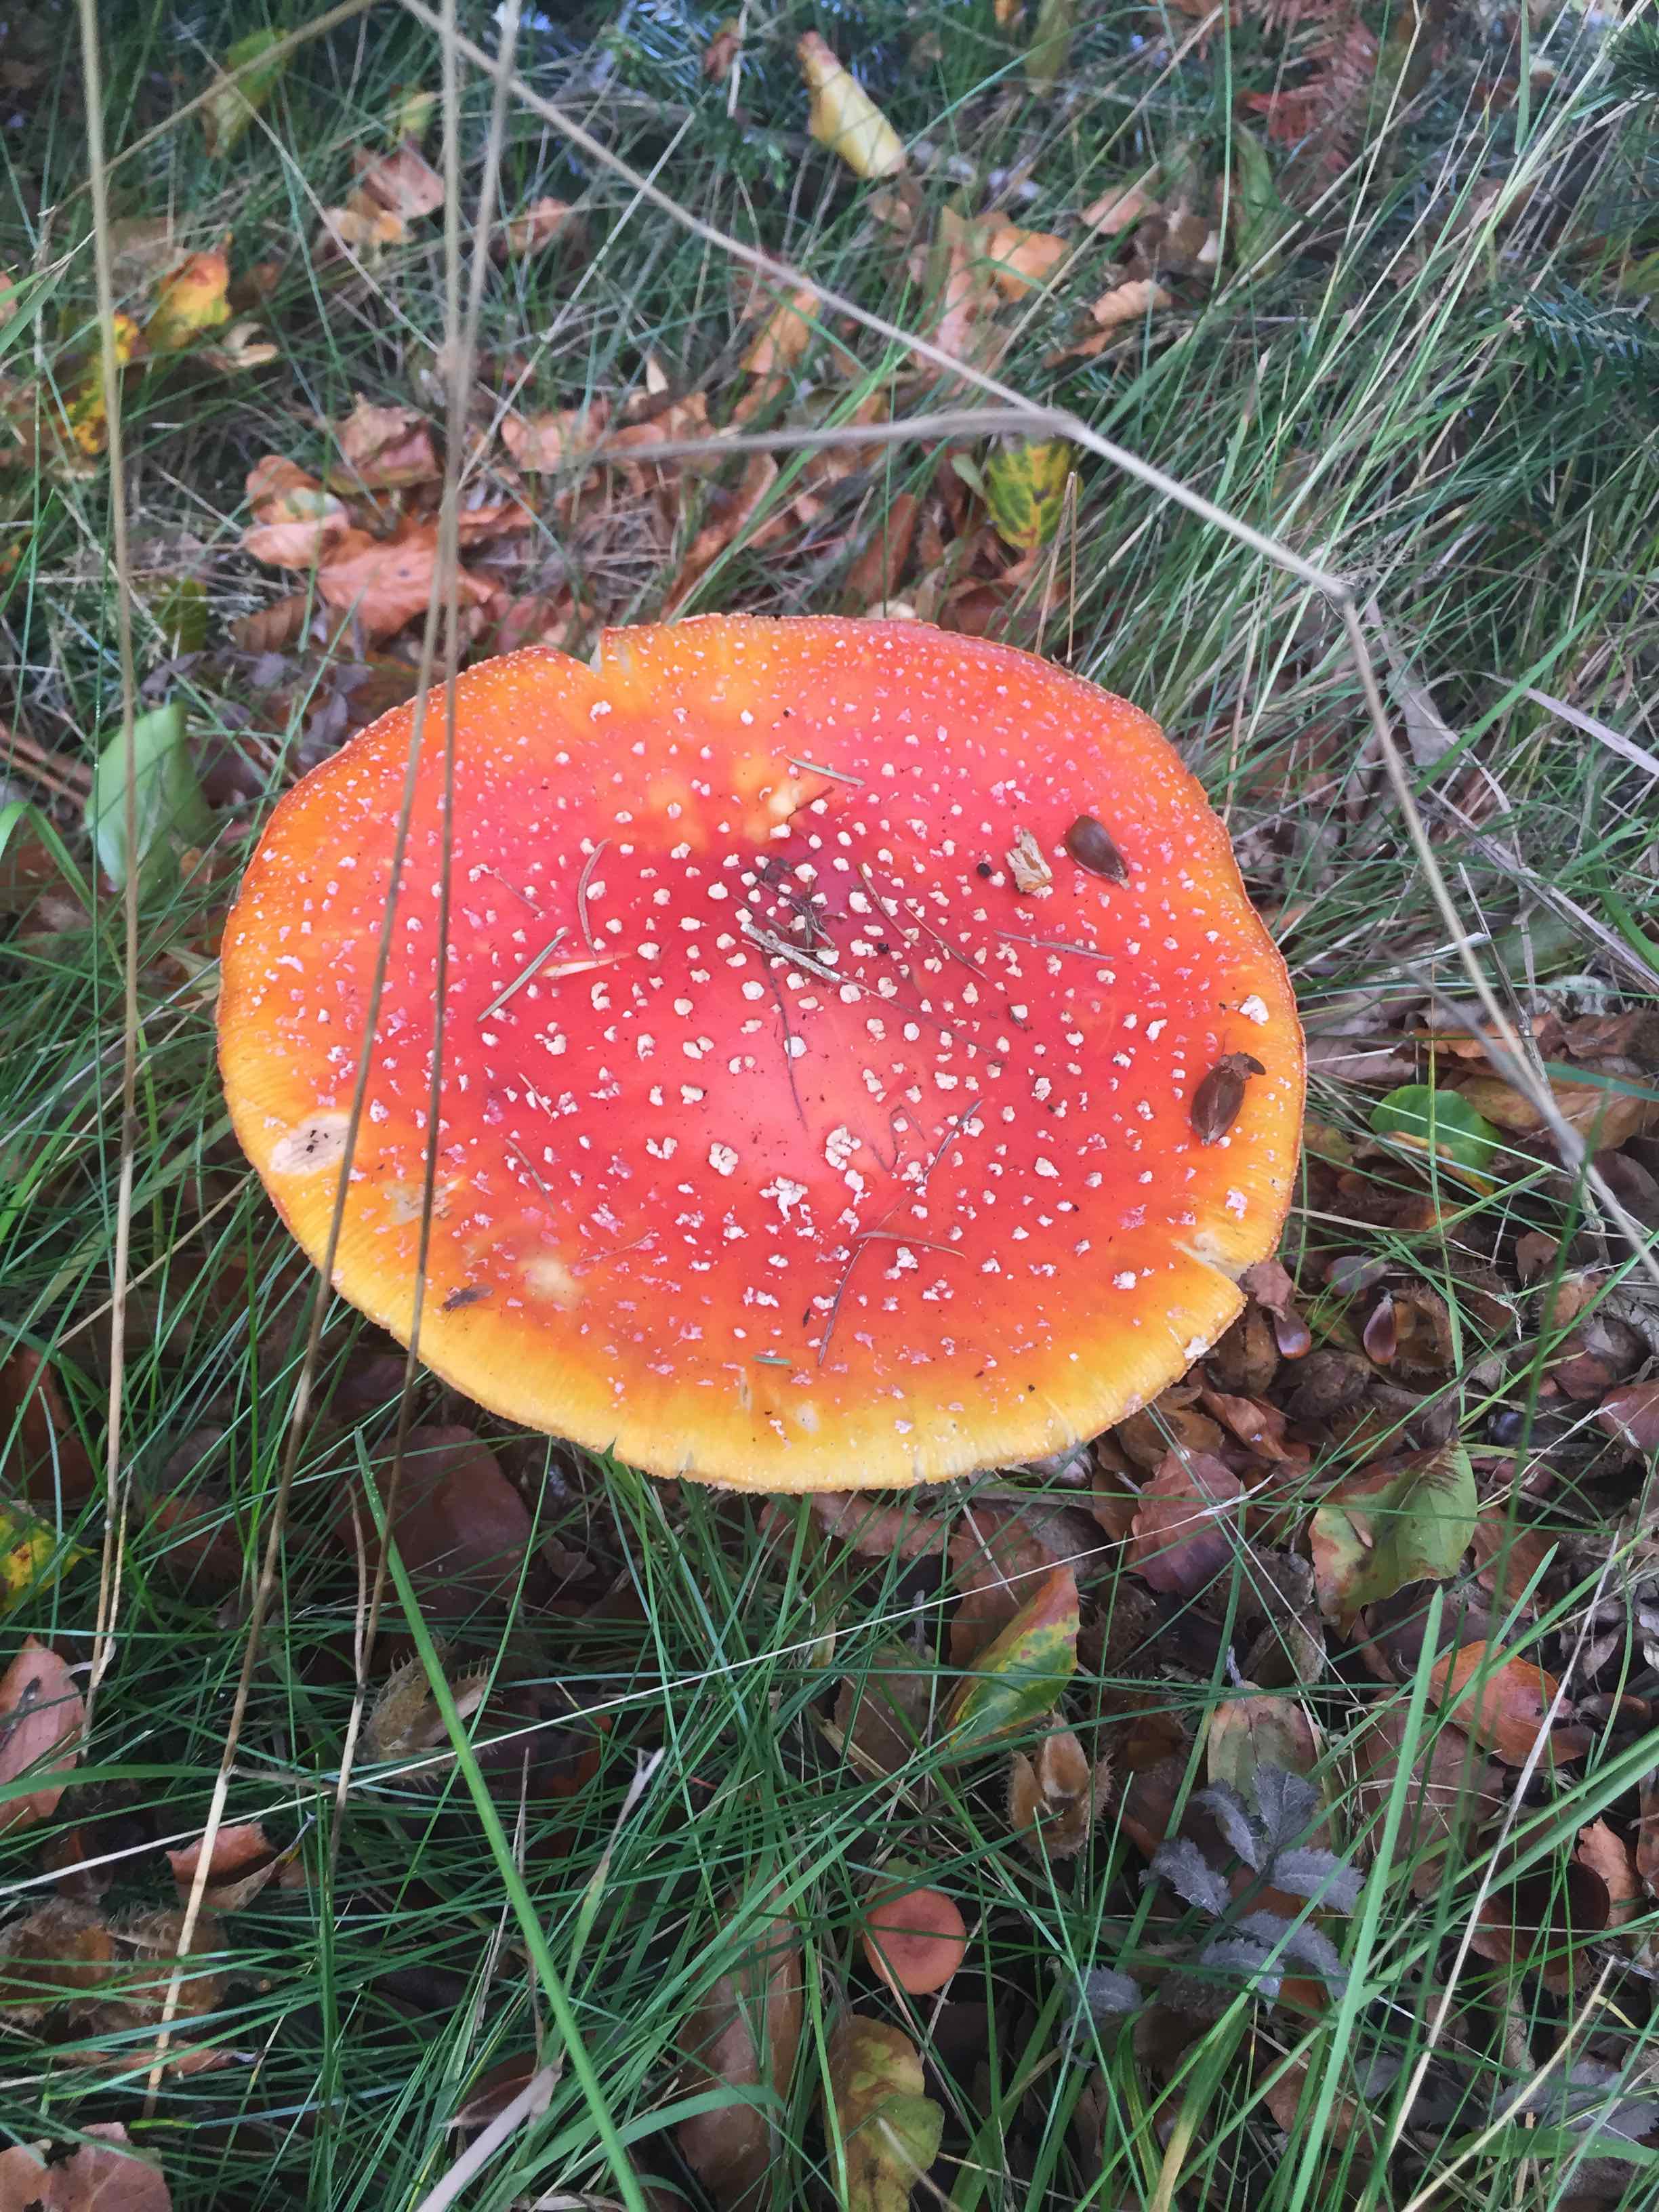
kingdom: Fungi
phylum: Basidiomycota
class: Agaricomycetes
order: Agaricales
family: Amanitaceae
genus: Amanita
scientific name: Amanita muscaria
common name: rød fluesvamp
